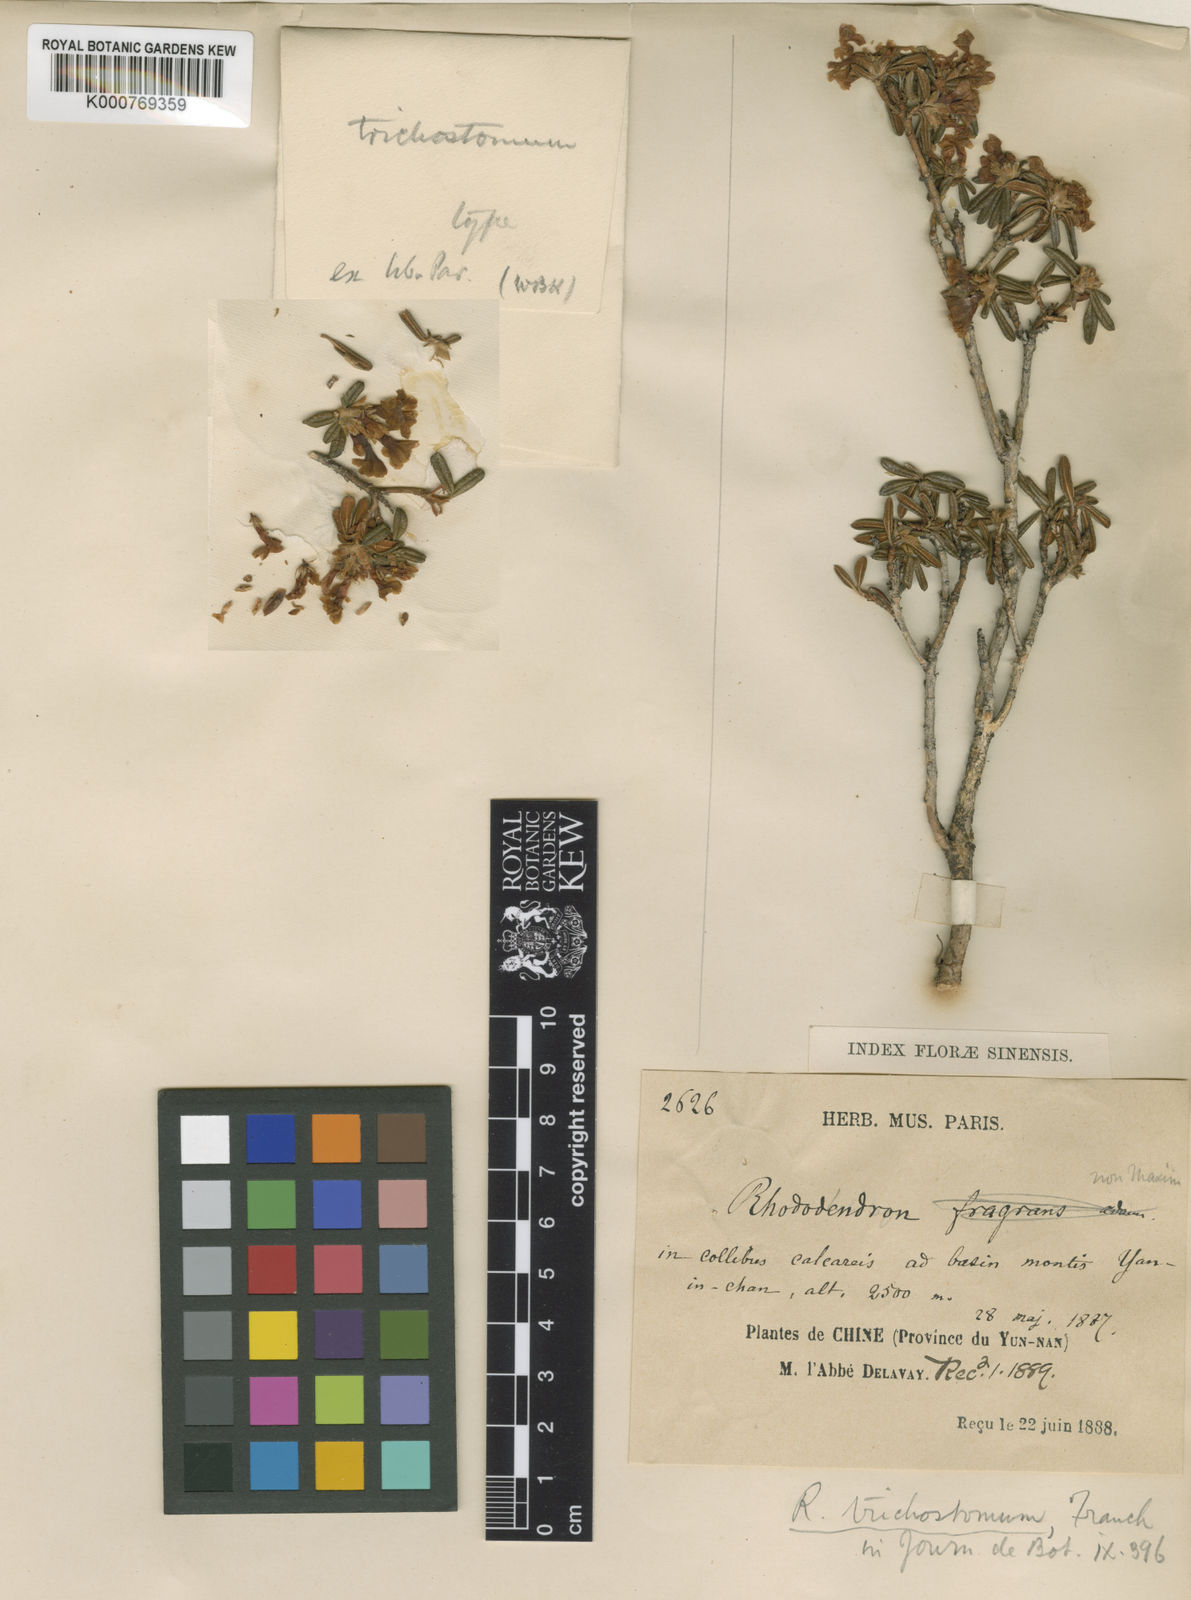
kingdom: Plantae
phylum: Tracheophyta
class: Magnoliopsida
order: Ericales
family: Ericaceae
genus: Rhododendron
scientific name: Rhododendron trichostomum
